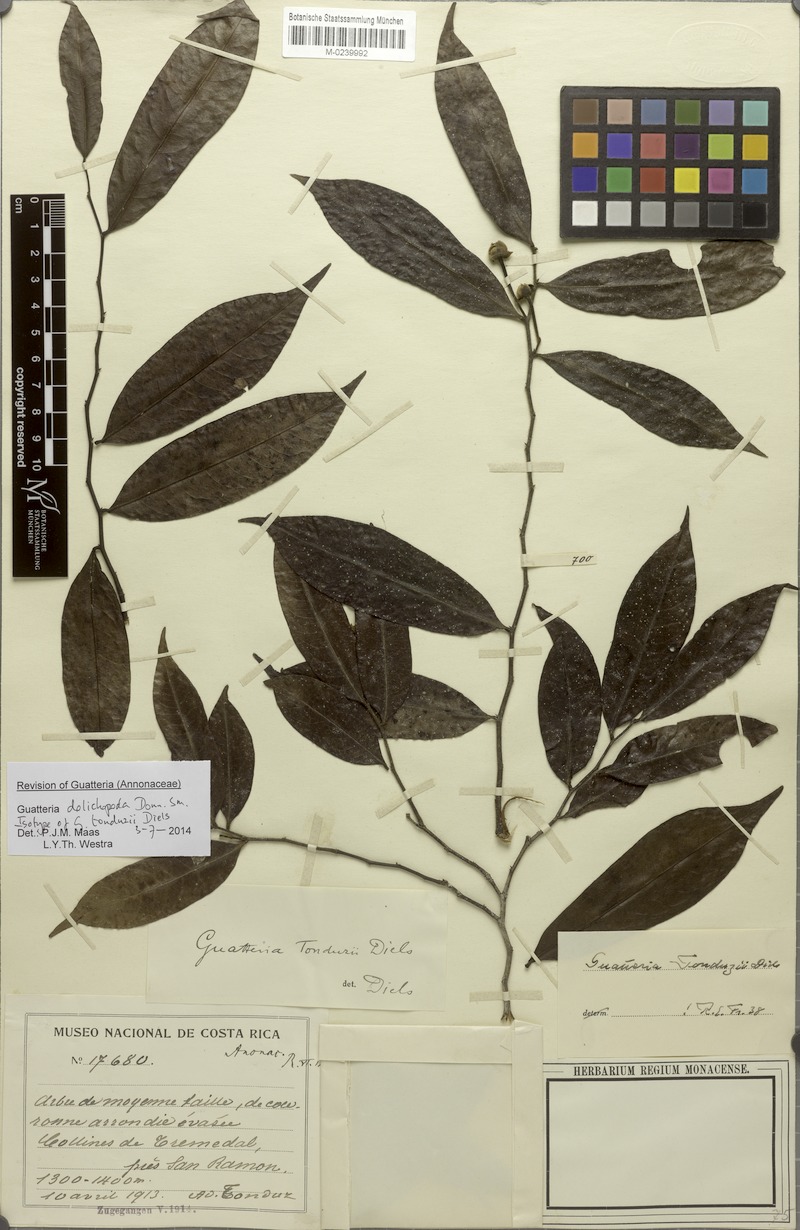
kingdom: Plantae
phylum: Tracheophyta
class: Magnoliopsida
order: Magnoliales
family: Annonaceae
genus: Guatteria
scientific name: Guatteria dolichopoda
